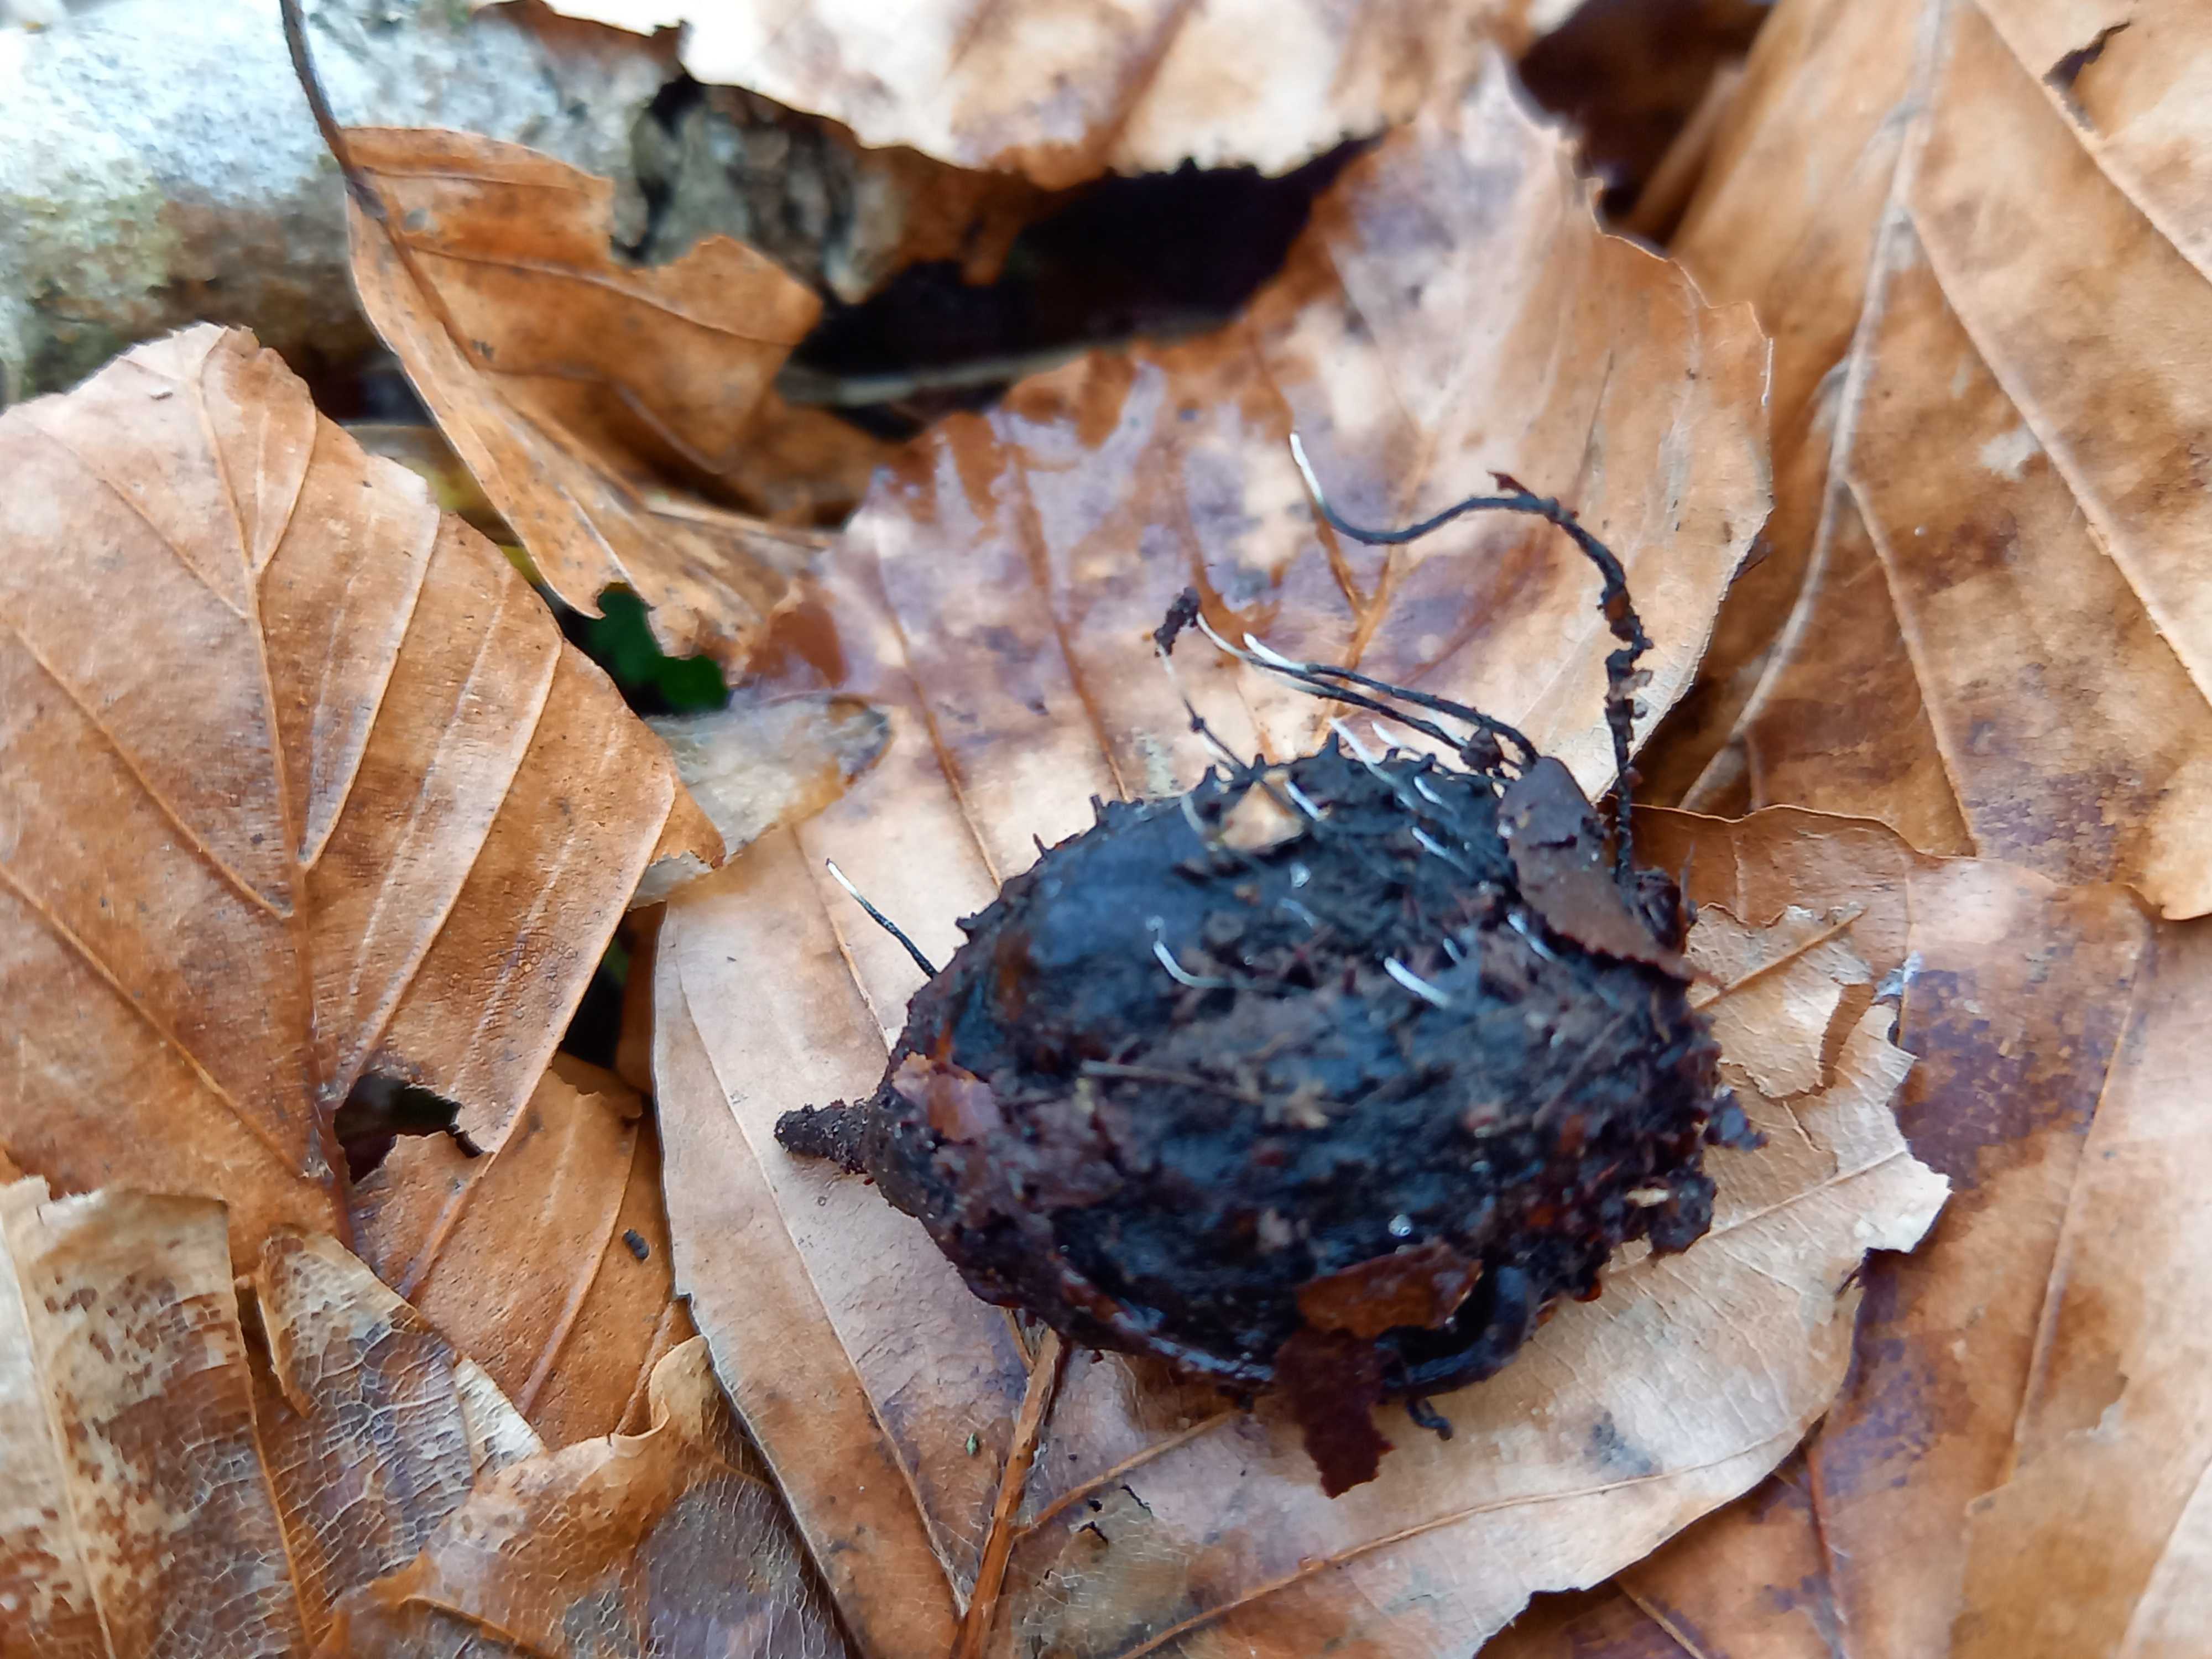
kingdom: Fungi
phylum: Ascomycota
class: Sordariomycetes
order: Xylariales
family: Xylariaceae
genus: Xylaria
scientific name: Xylaria carpophila
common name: bogskål-stødsvamp
